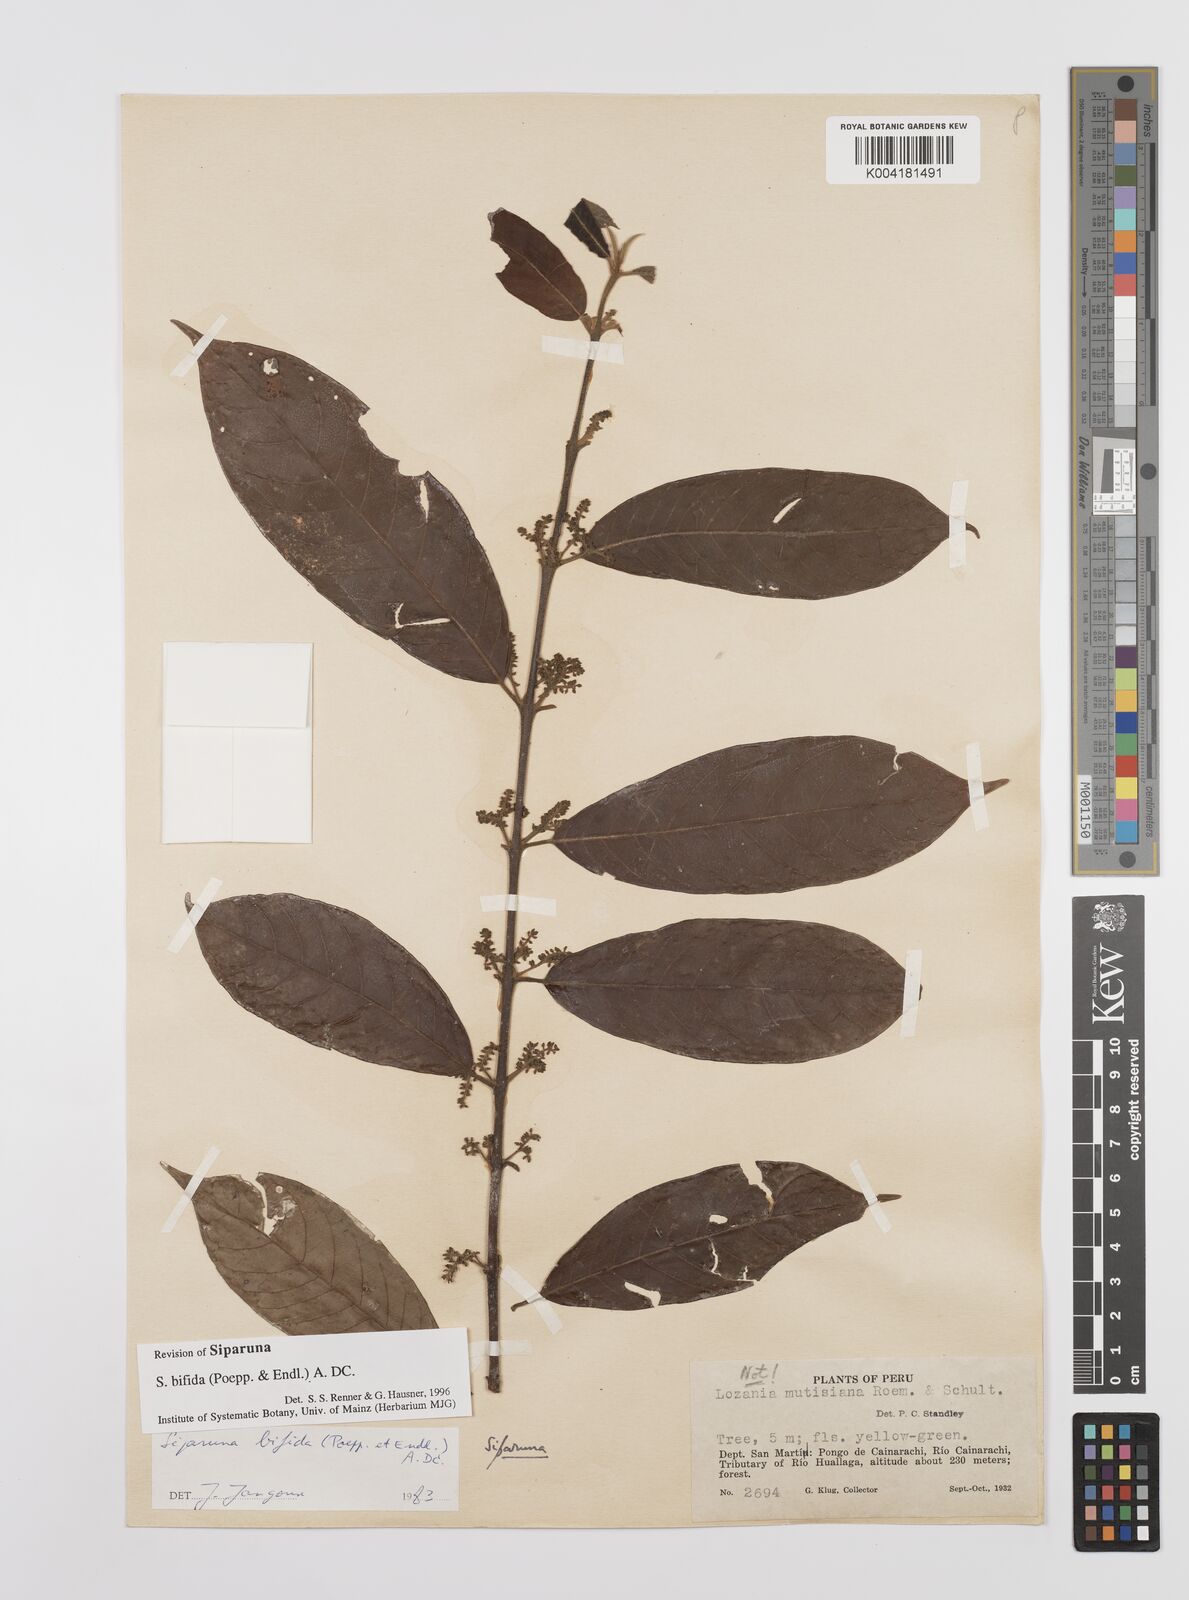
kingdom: Plantae
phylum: Tracheophyta
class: Magnoliopsida
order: Laurales
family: Siparunaceae
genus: Siparuna
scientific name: Siparuna bifida
